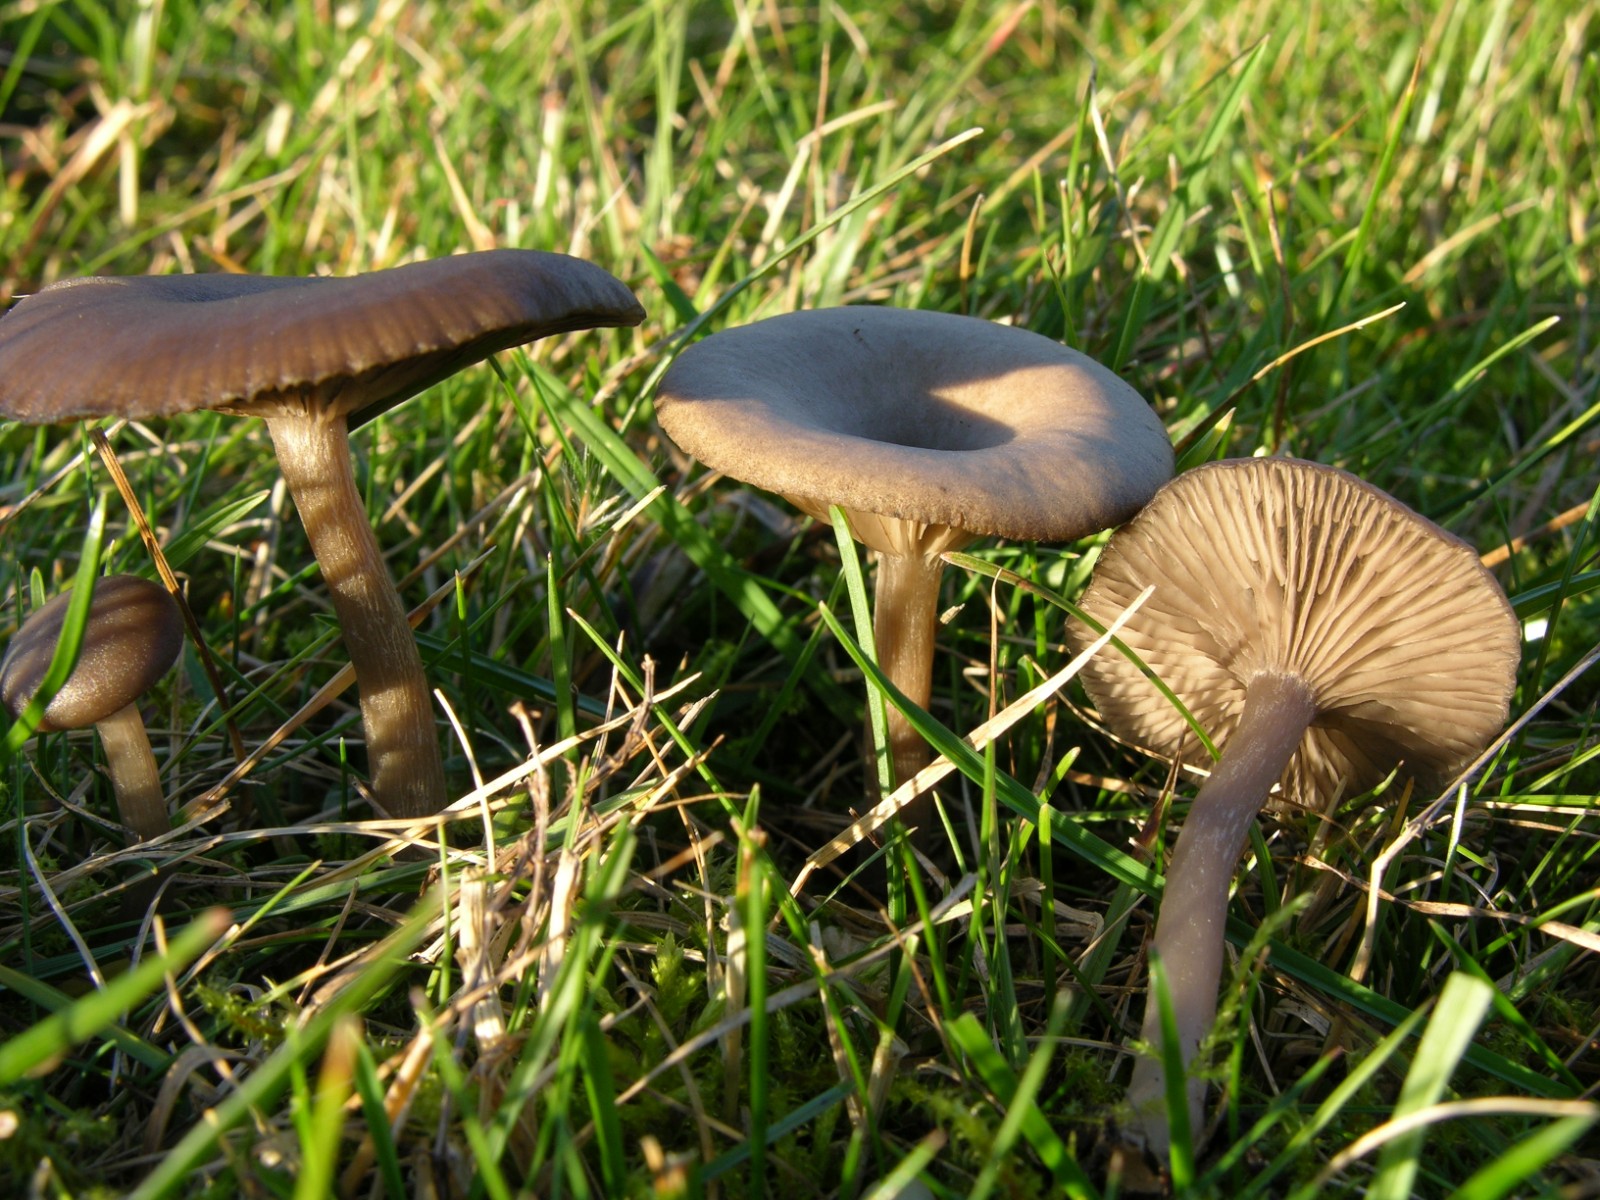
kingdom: Fungi
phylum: Basidiomycota
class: Agaricomycetes
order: Agaricales
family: Pseudoclitocybaceae
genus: Pseudoclitocybe
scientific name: Pseudoclitocybe expallens
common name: lille bægertragthat
